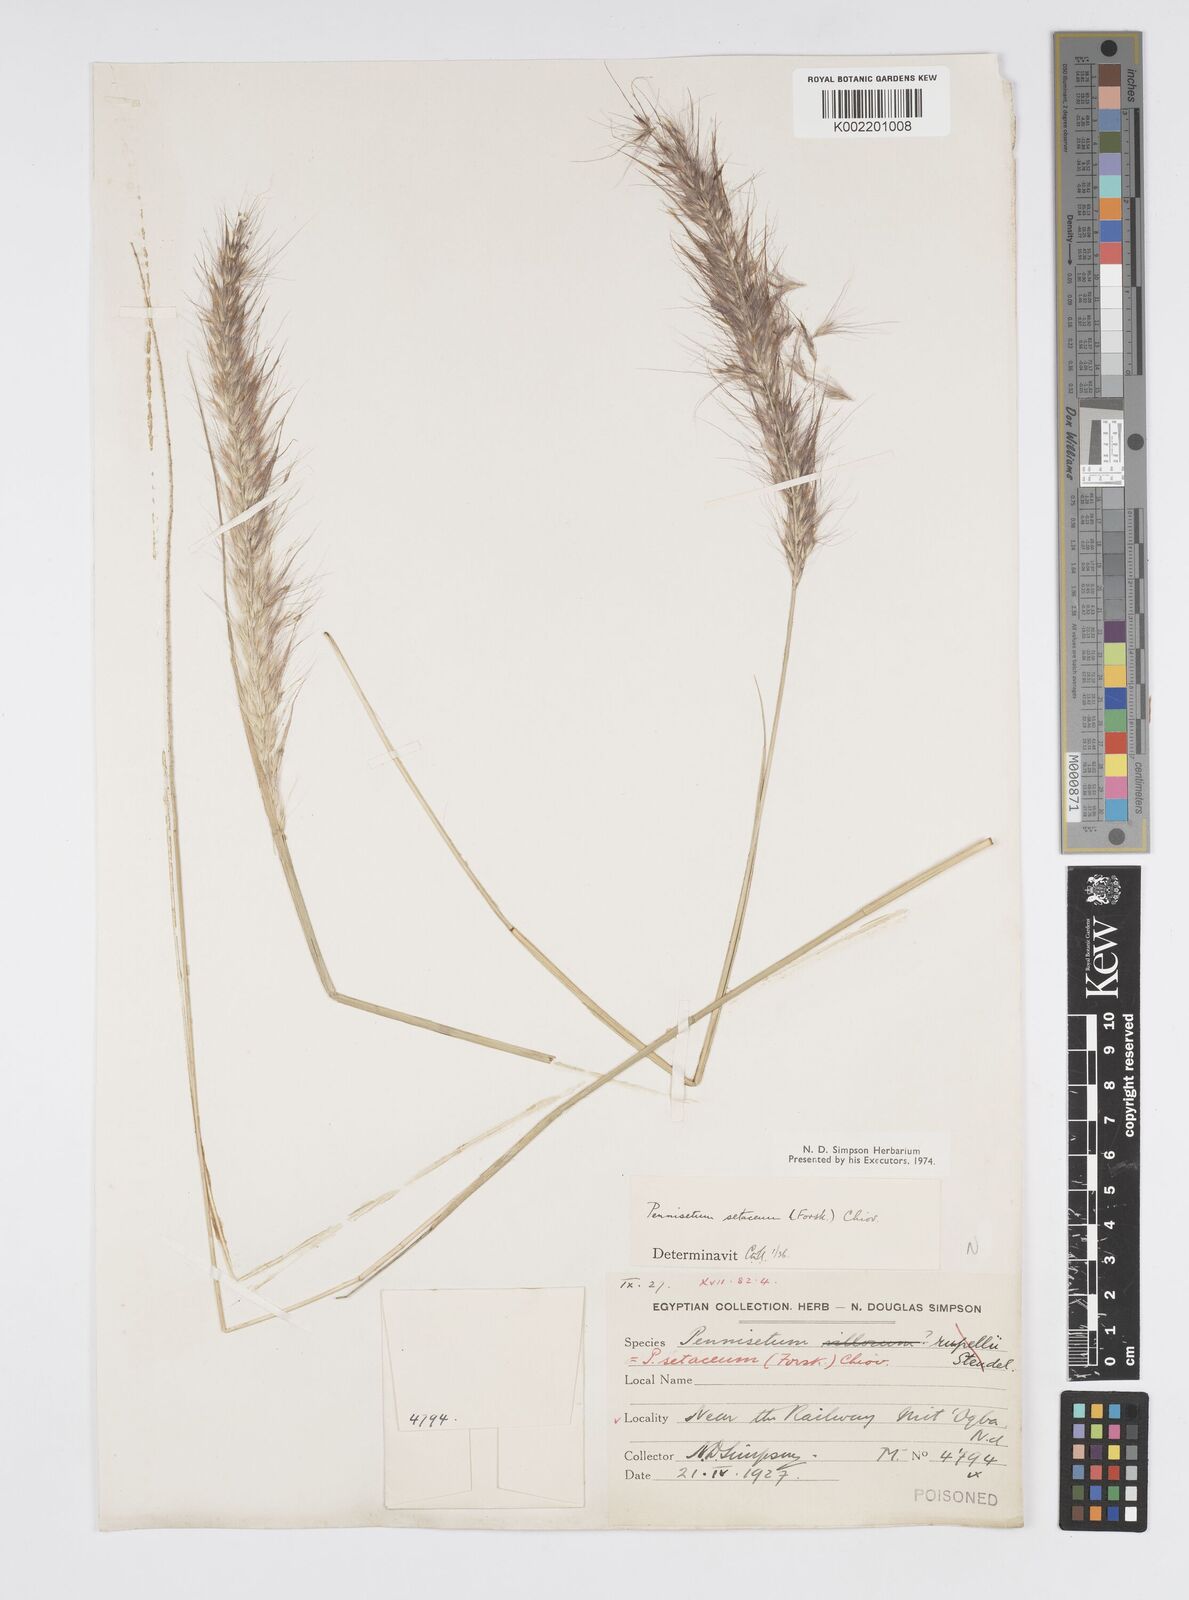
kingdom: Plantae
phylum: Tracheophyta
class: Liliopsida
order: Poales
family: Poaceae
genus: Cenchrus
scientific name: Cenchrus setaceus
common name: Crimson fountaingrass
